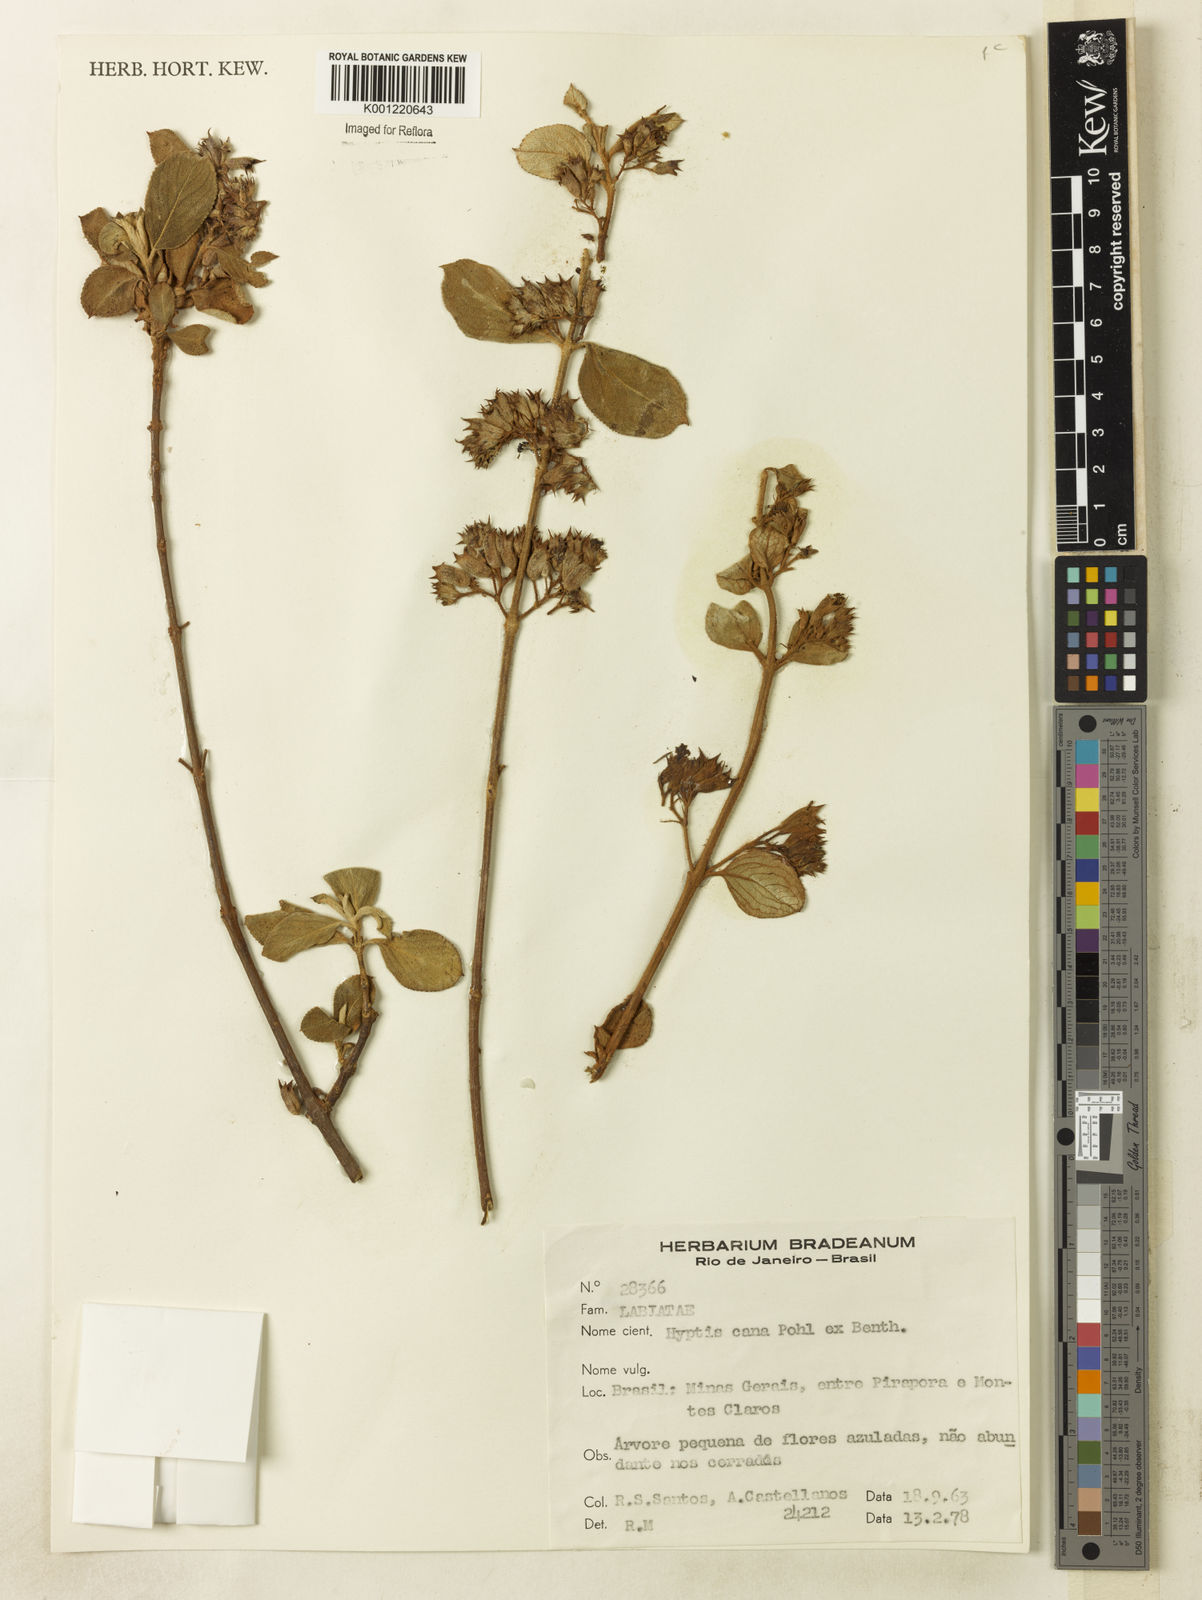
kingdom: Plantae
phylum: Tracheophyta
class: Magnoliopsida
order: Lamiales
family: Lamiaceae
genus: Hyptidendron
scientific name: Hyptidendron canum
